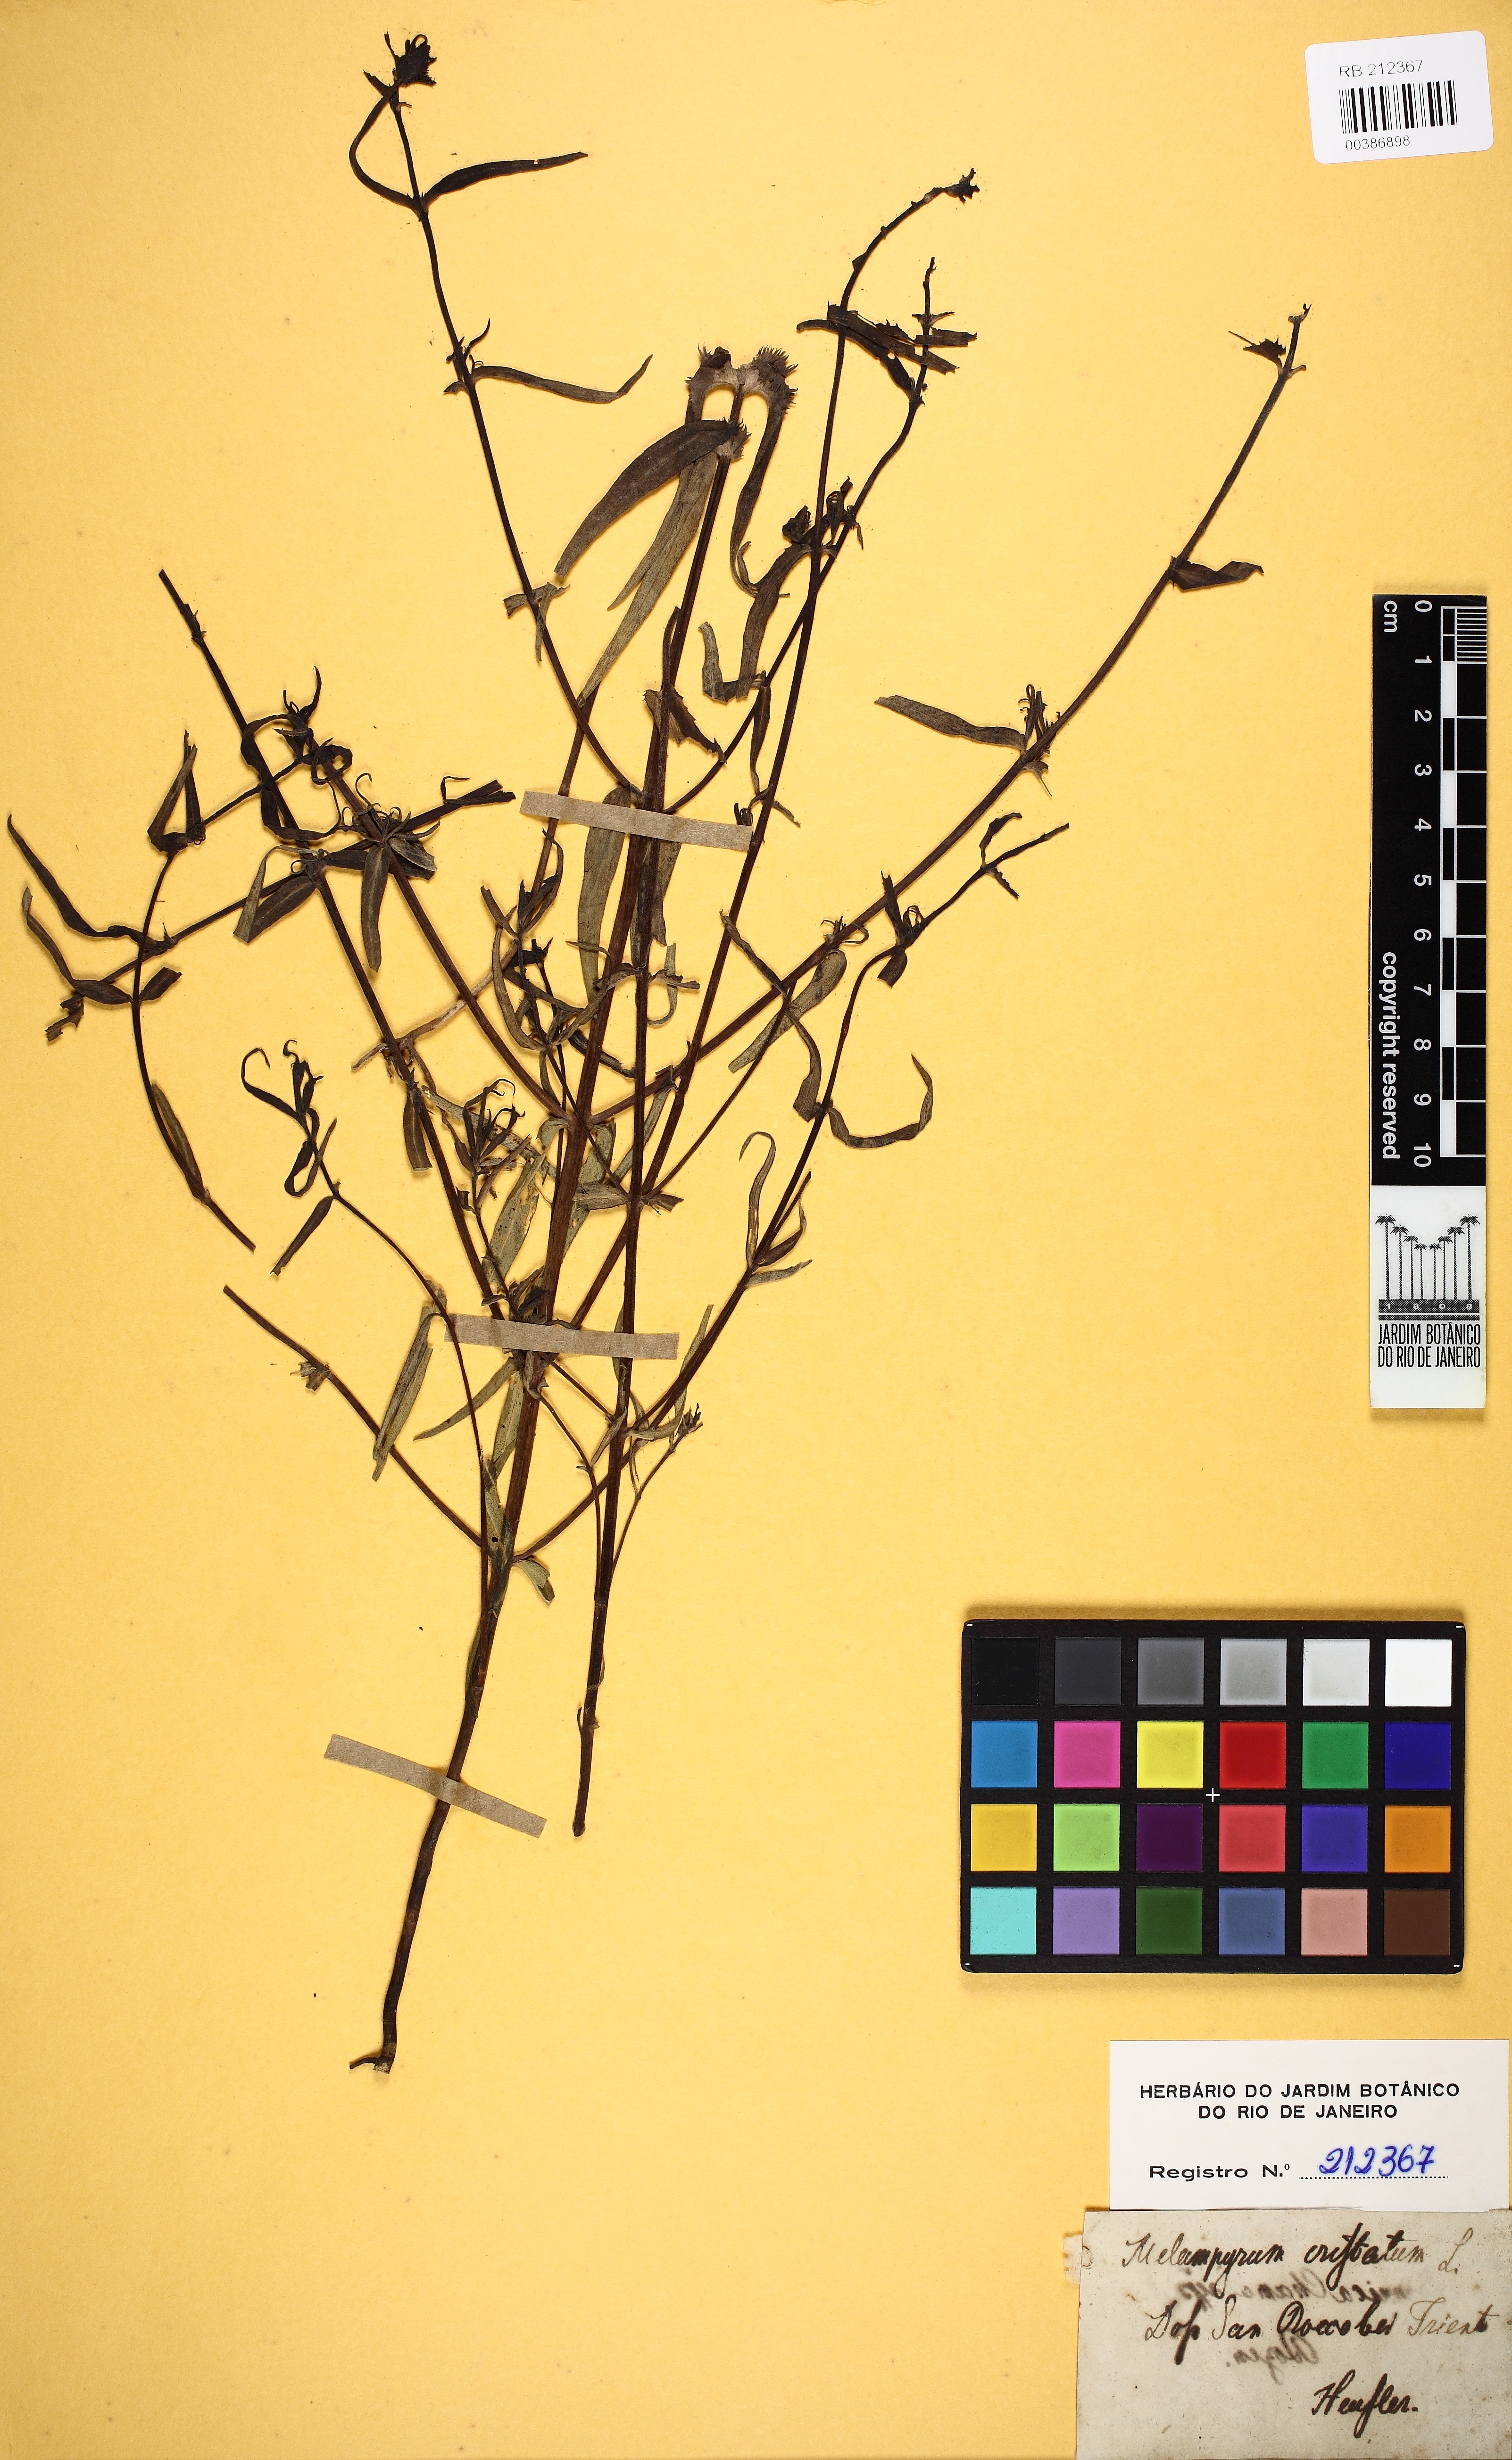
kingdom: Plantae
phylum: Tracheophyta
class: Magnoliopsida
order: Lamiales
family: Orobanchaceae
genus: Melampyrum
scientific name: Melampyrum arvense
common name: Field cow-wheat
